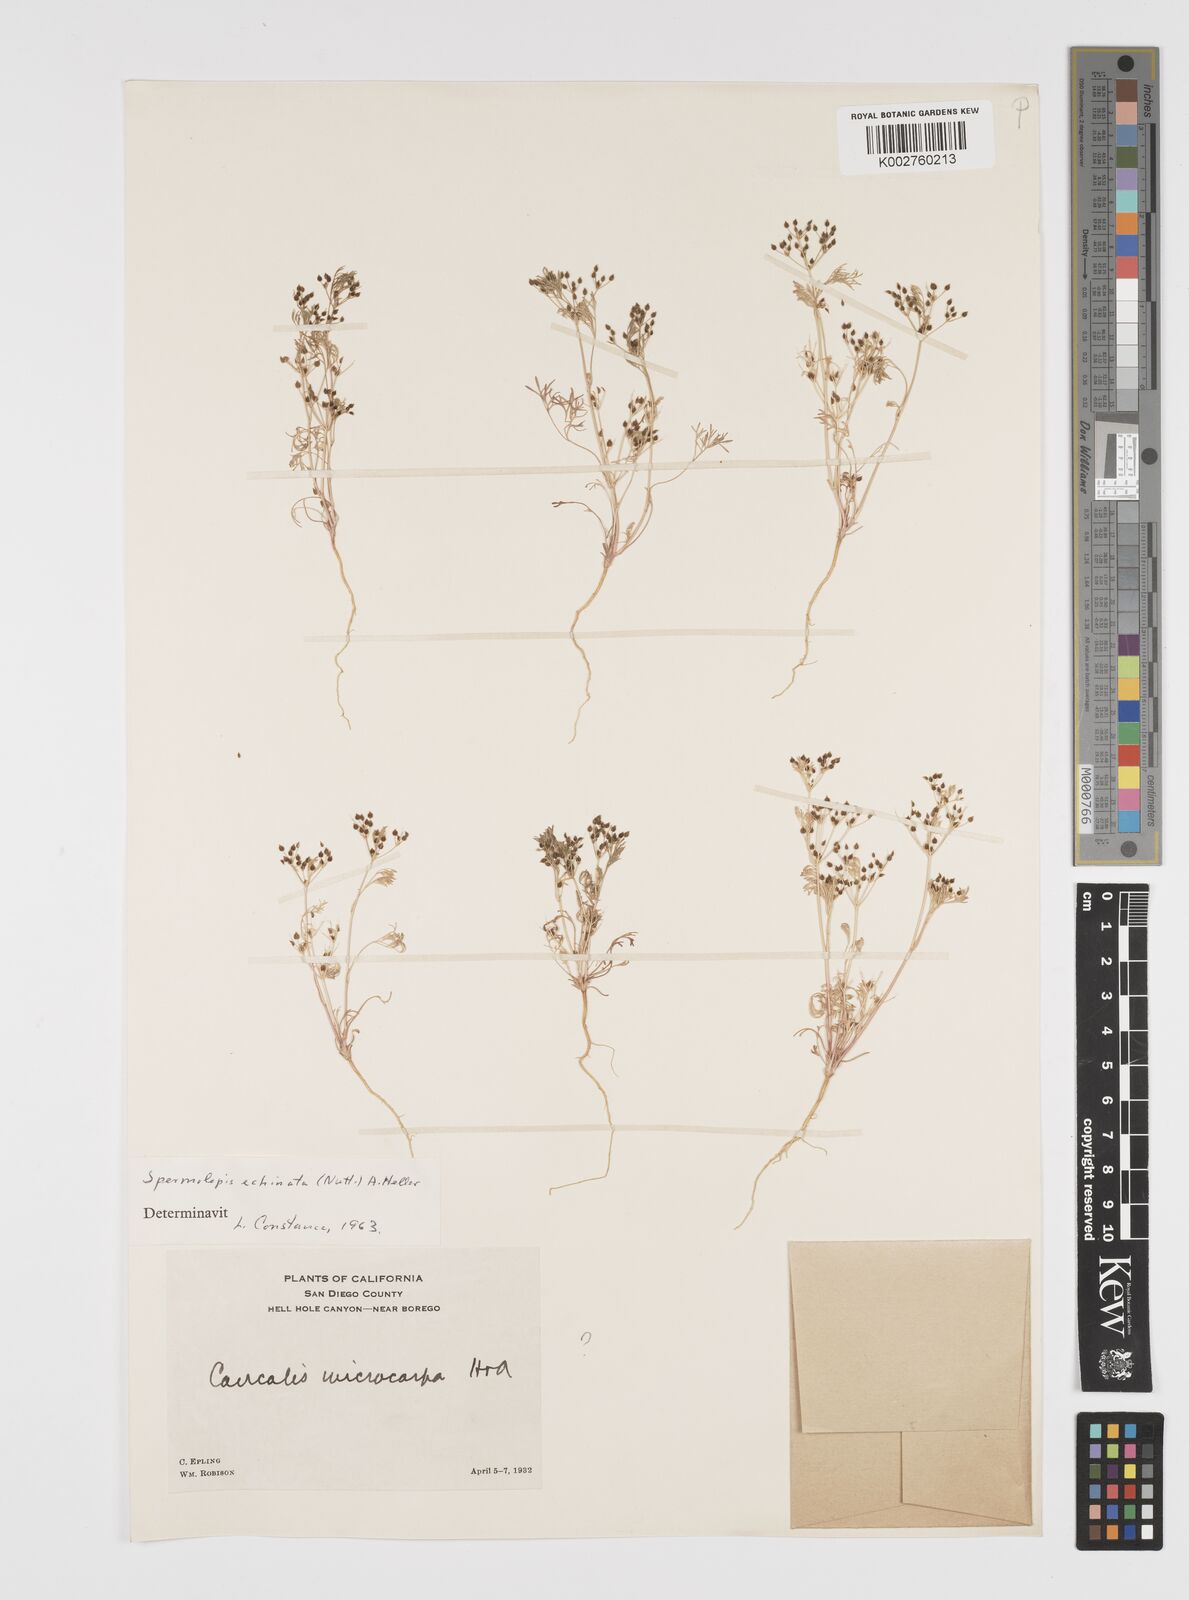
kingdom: Plantae
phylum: Tracheophyta
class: Magnoliopsida
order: Apiales
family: Apiaceae
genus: Spermolepis
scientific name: Spermolepis echinata
